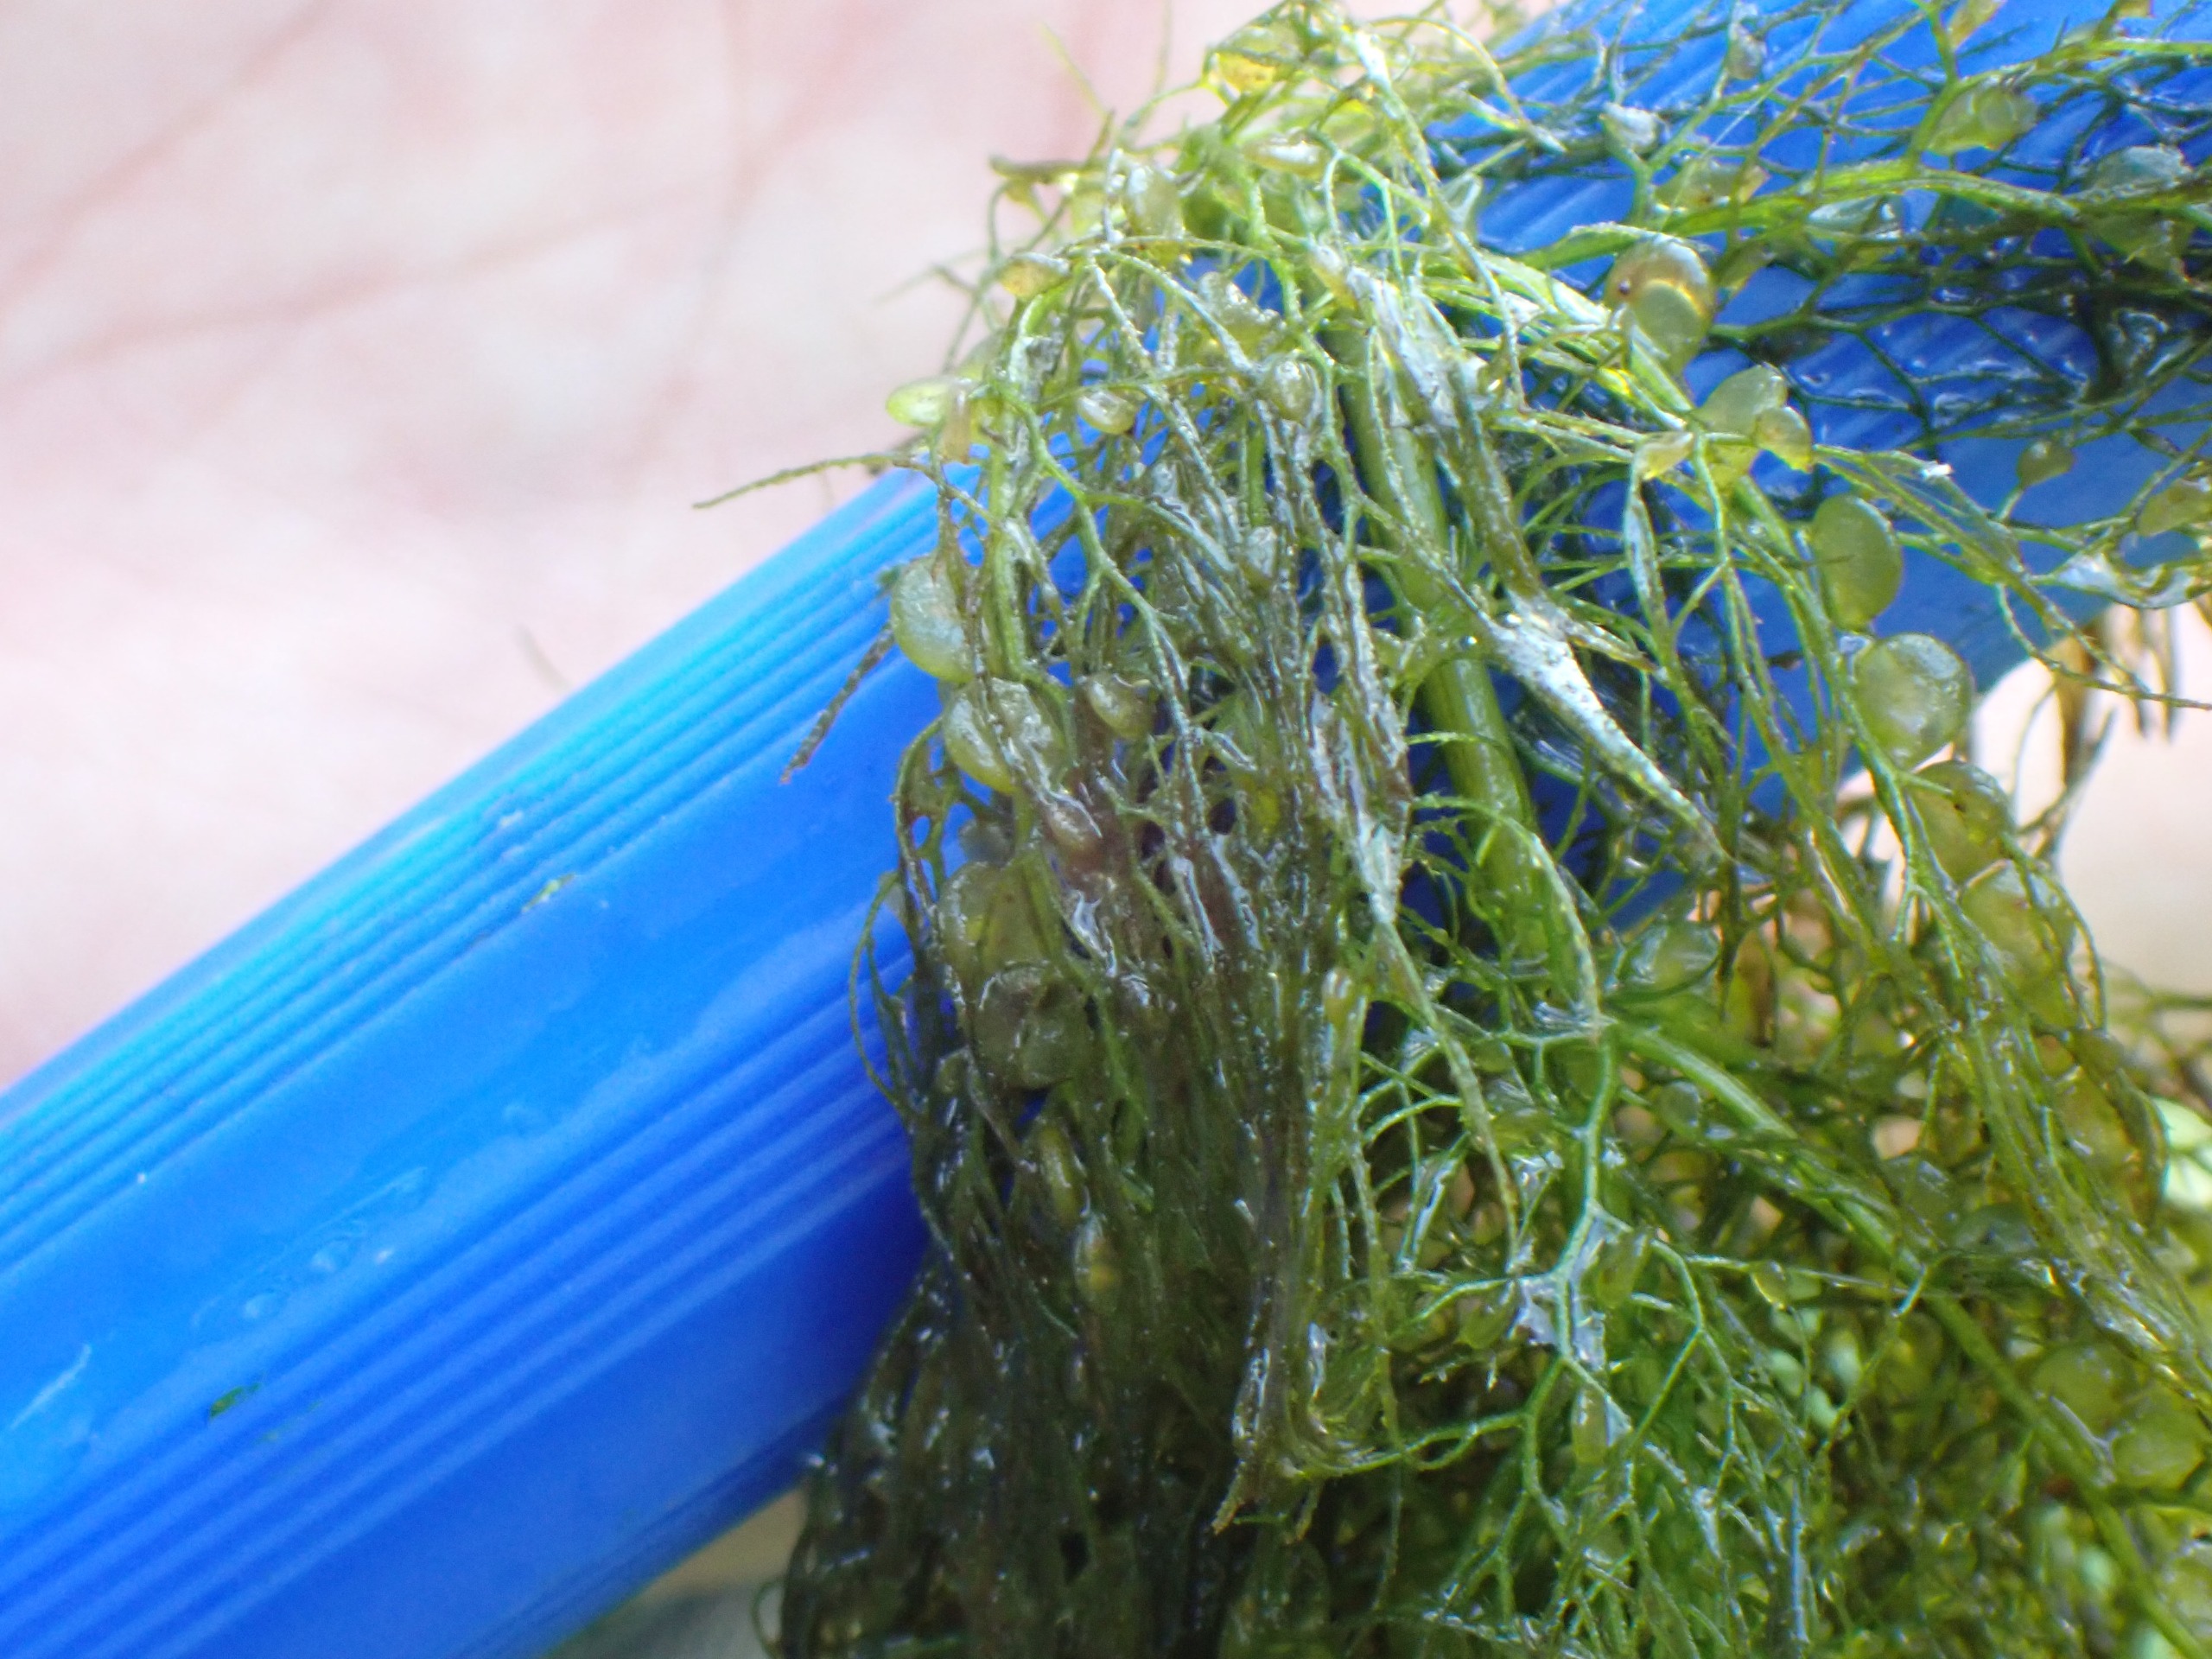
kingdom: Plantae
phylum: Tracheophyta
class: Magnoliopsida
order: Lamiales
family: Lentibulariaceae
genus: Utricularia
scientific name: Utricularia vulgaris
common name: Almindelig blærerod
